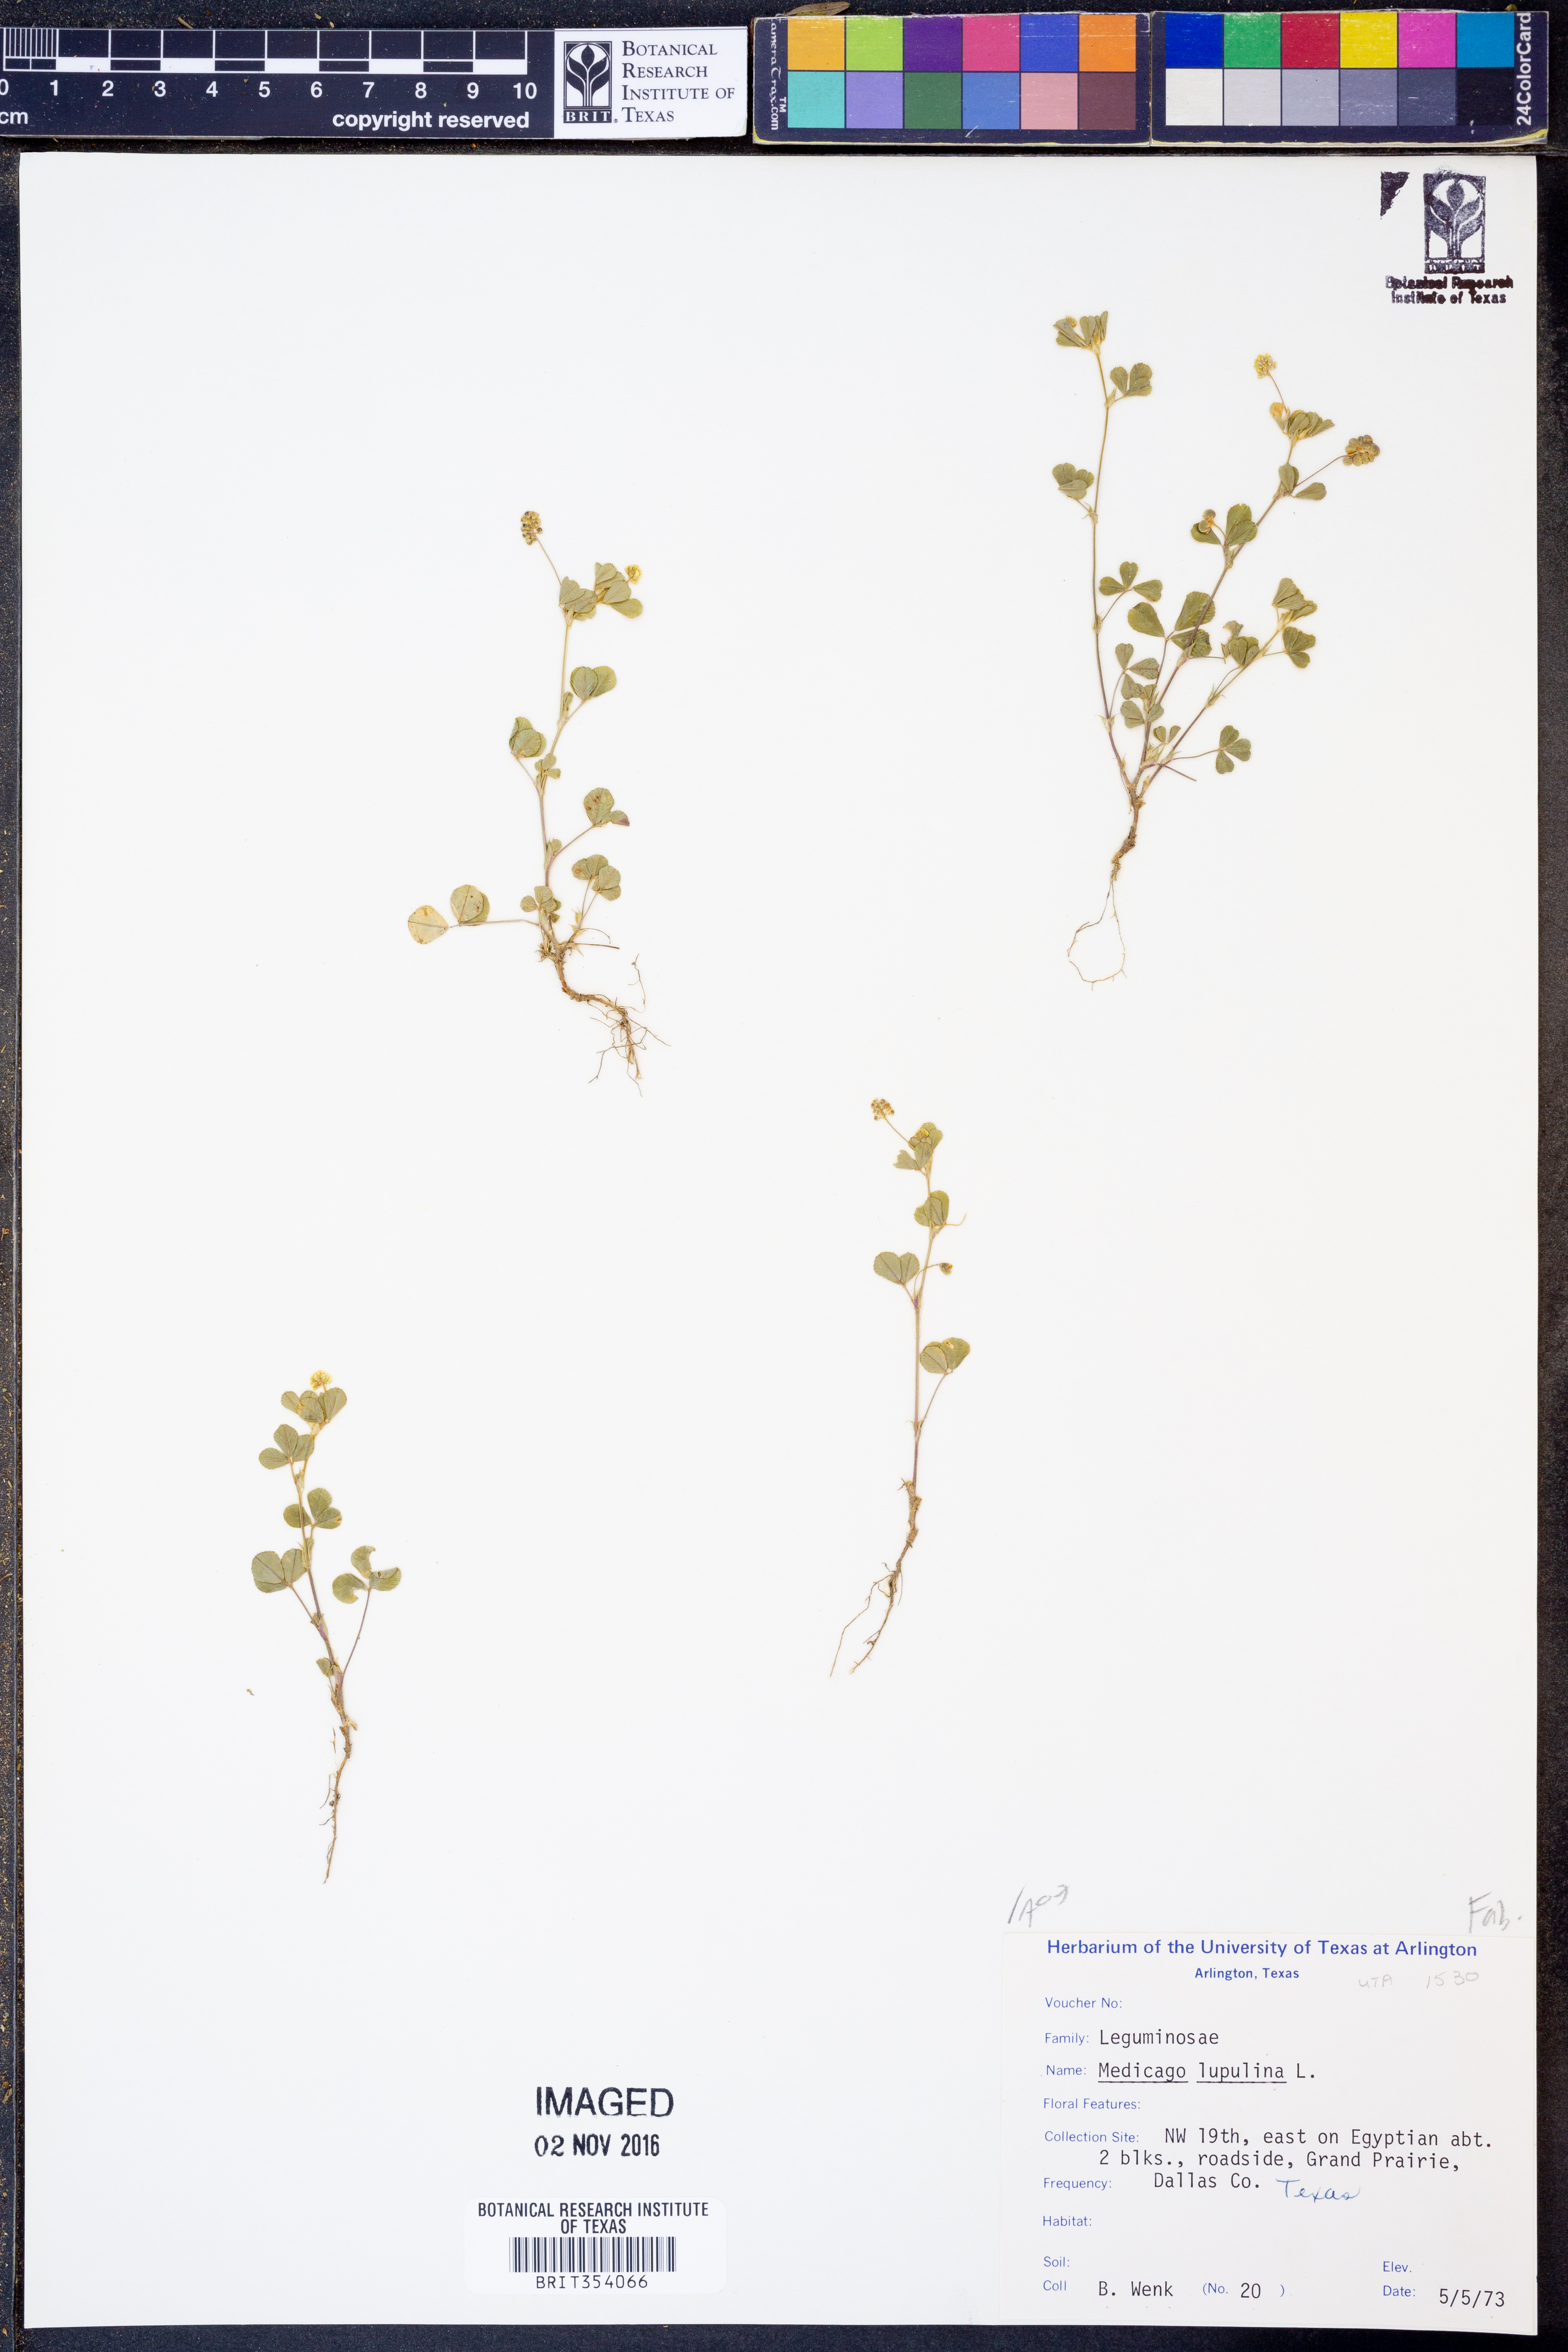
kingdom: Plantae
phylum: Tracheophyta
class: Magnoliopsida
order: Fabales
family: Fabaceae
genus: Medicago
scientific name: Medicago lupulina
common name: Black medick
